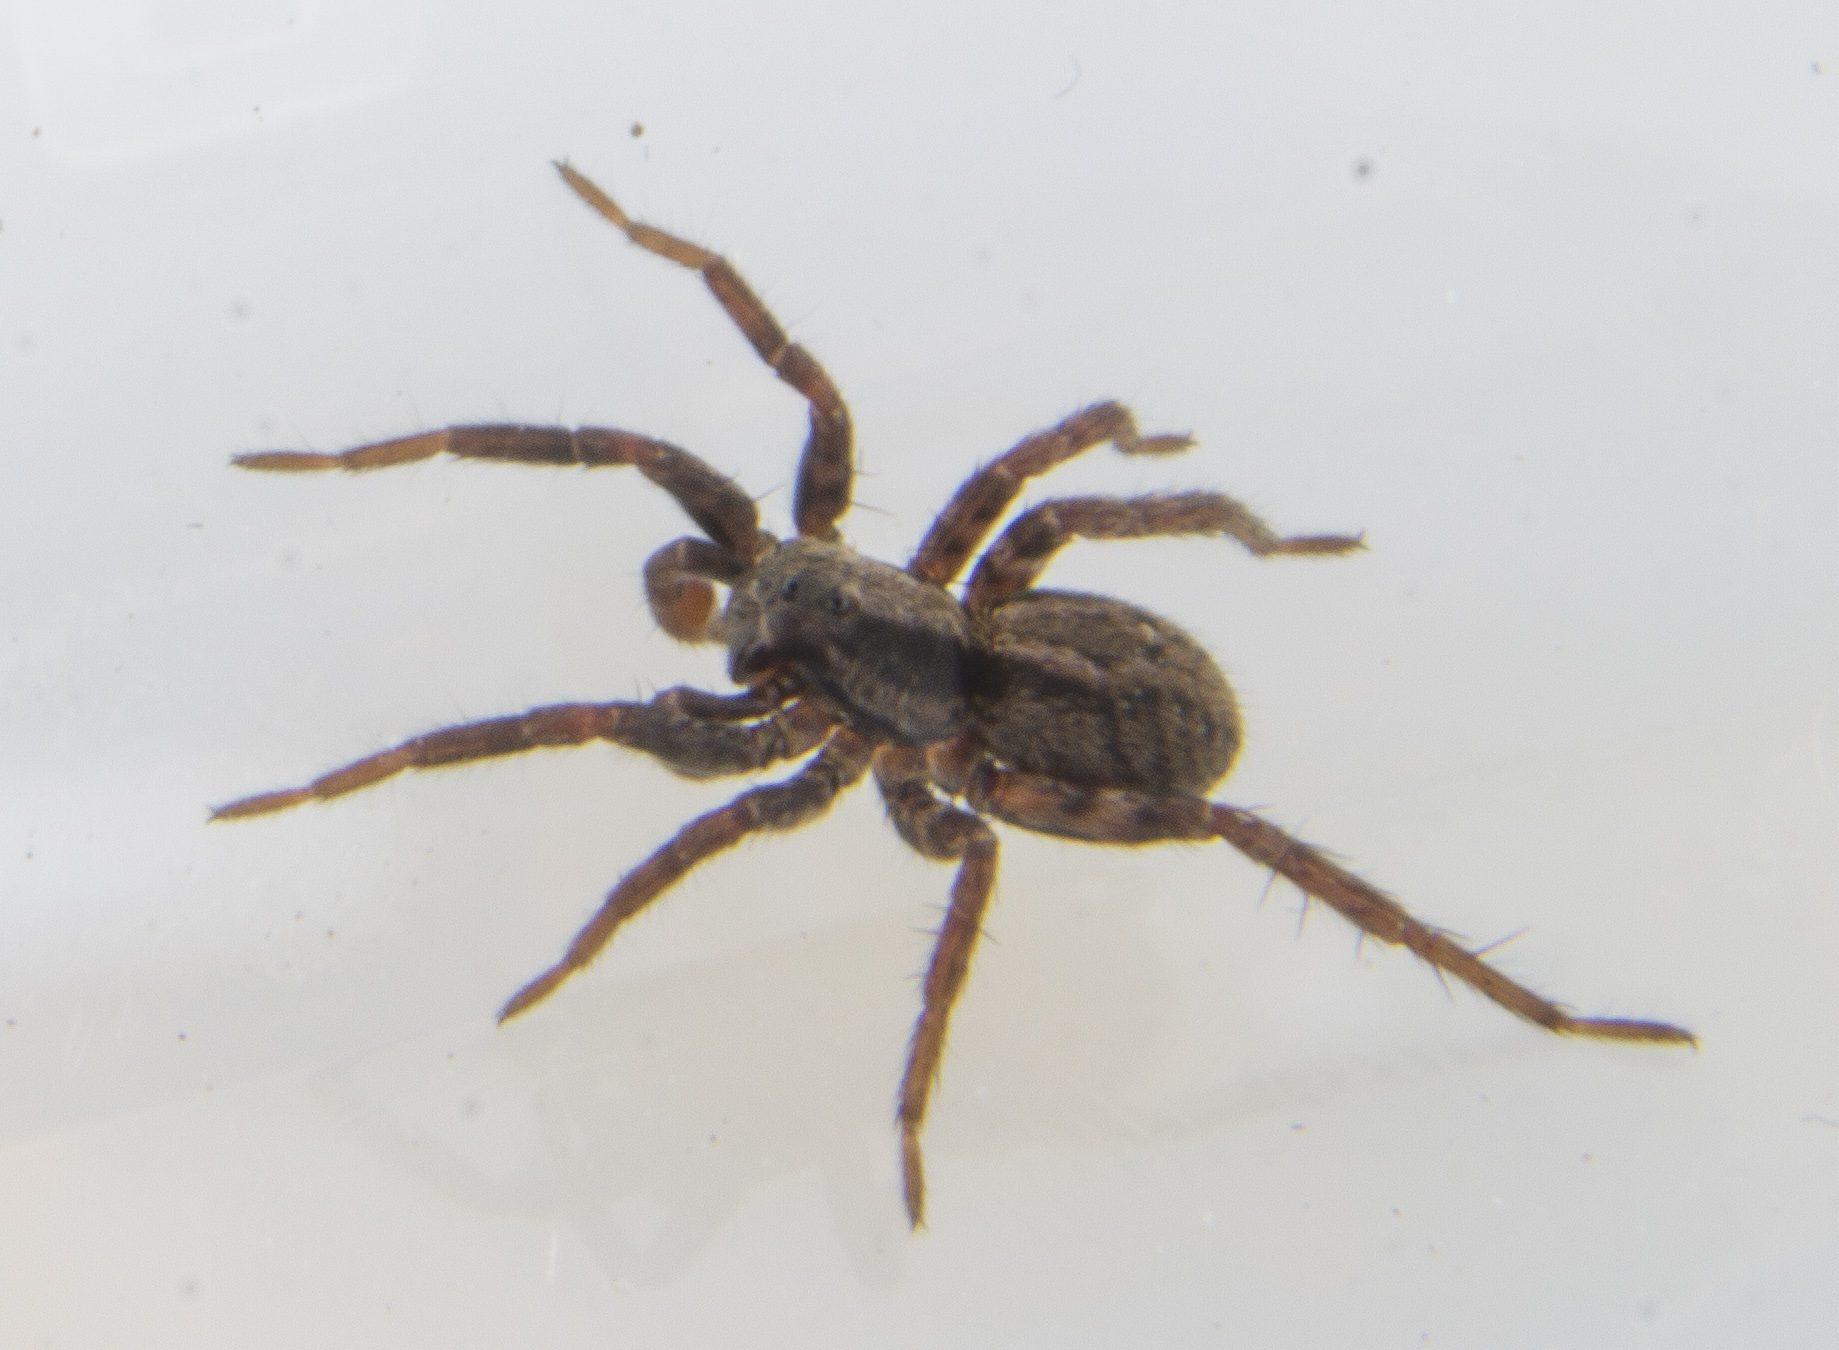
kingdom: Animalia
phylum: Arthropoda
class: Arachnida
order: Araneae
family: Lycosidae
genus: Alopecosa
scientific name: Alopecosa
